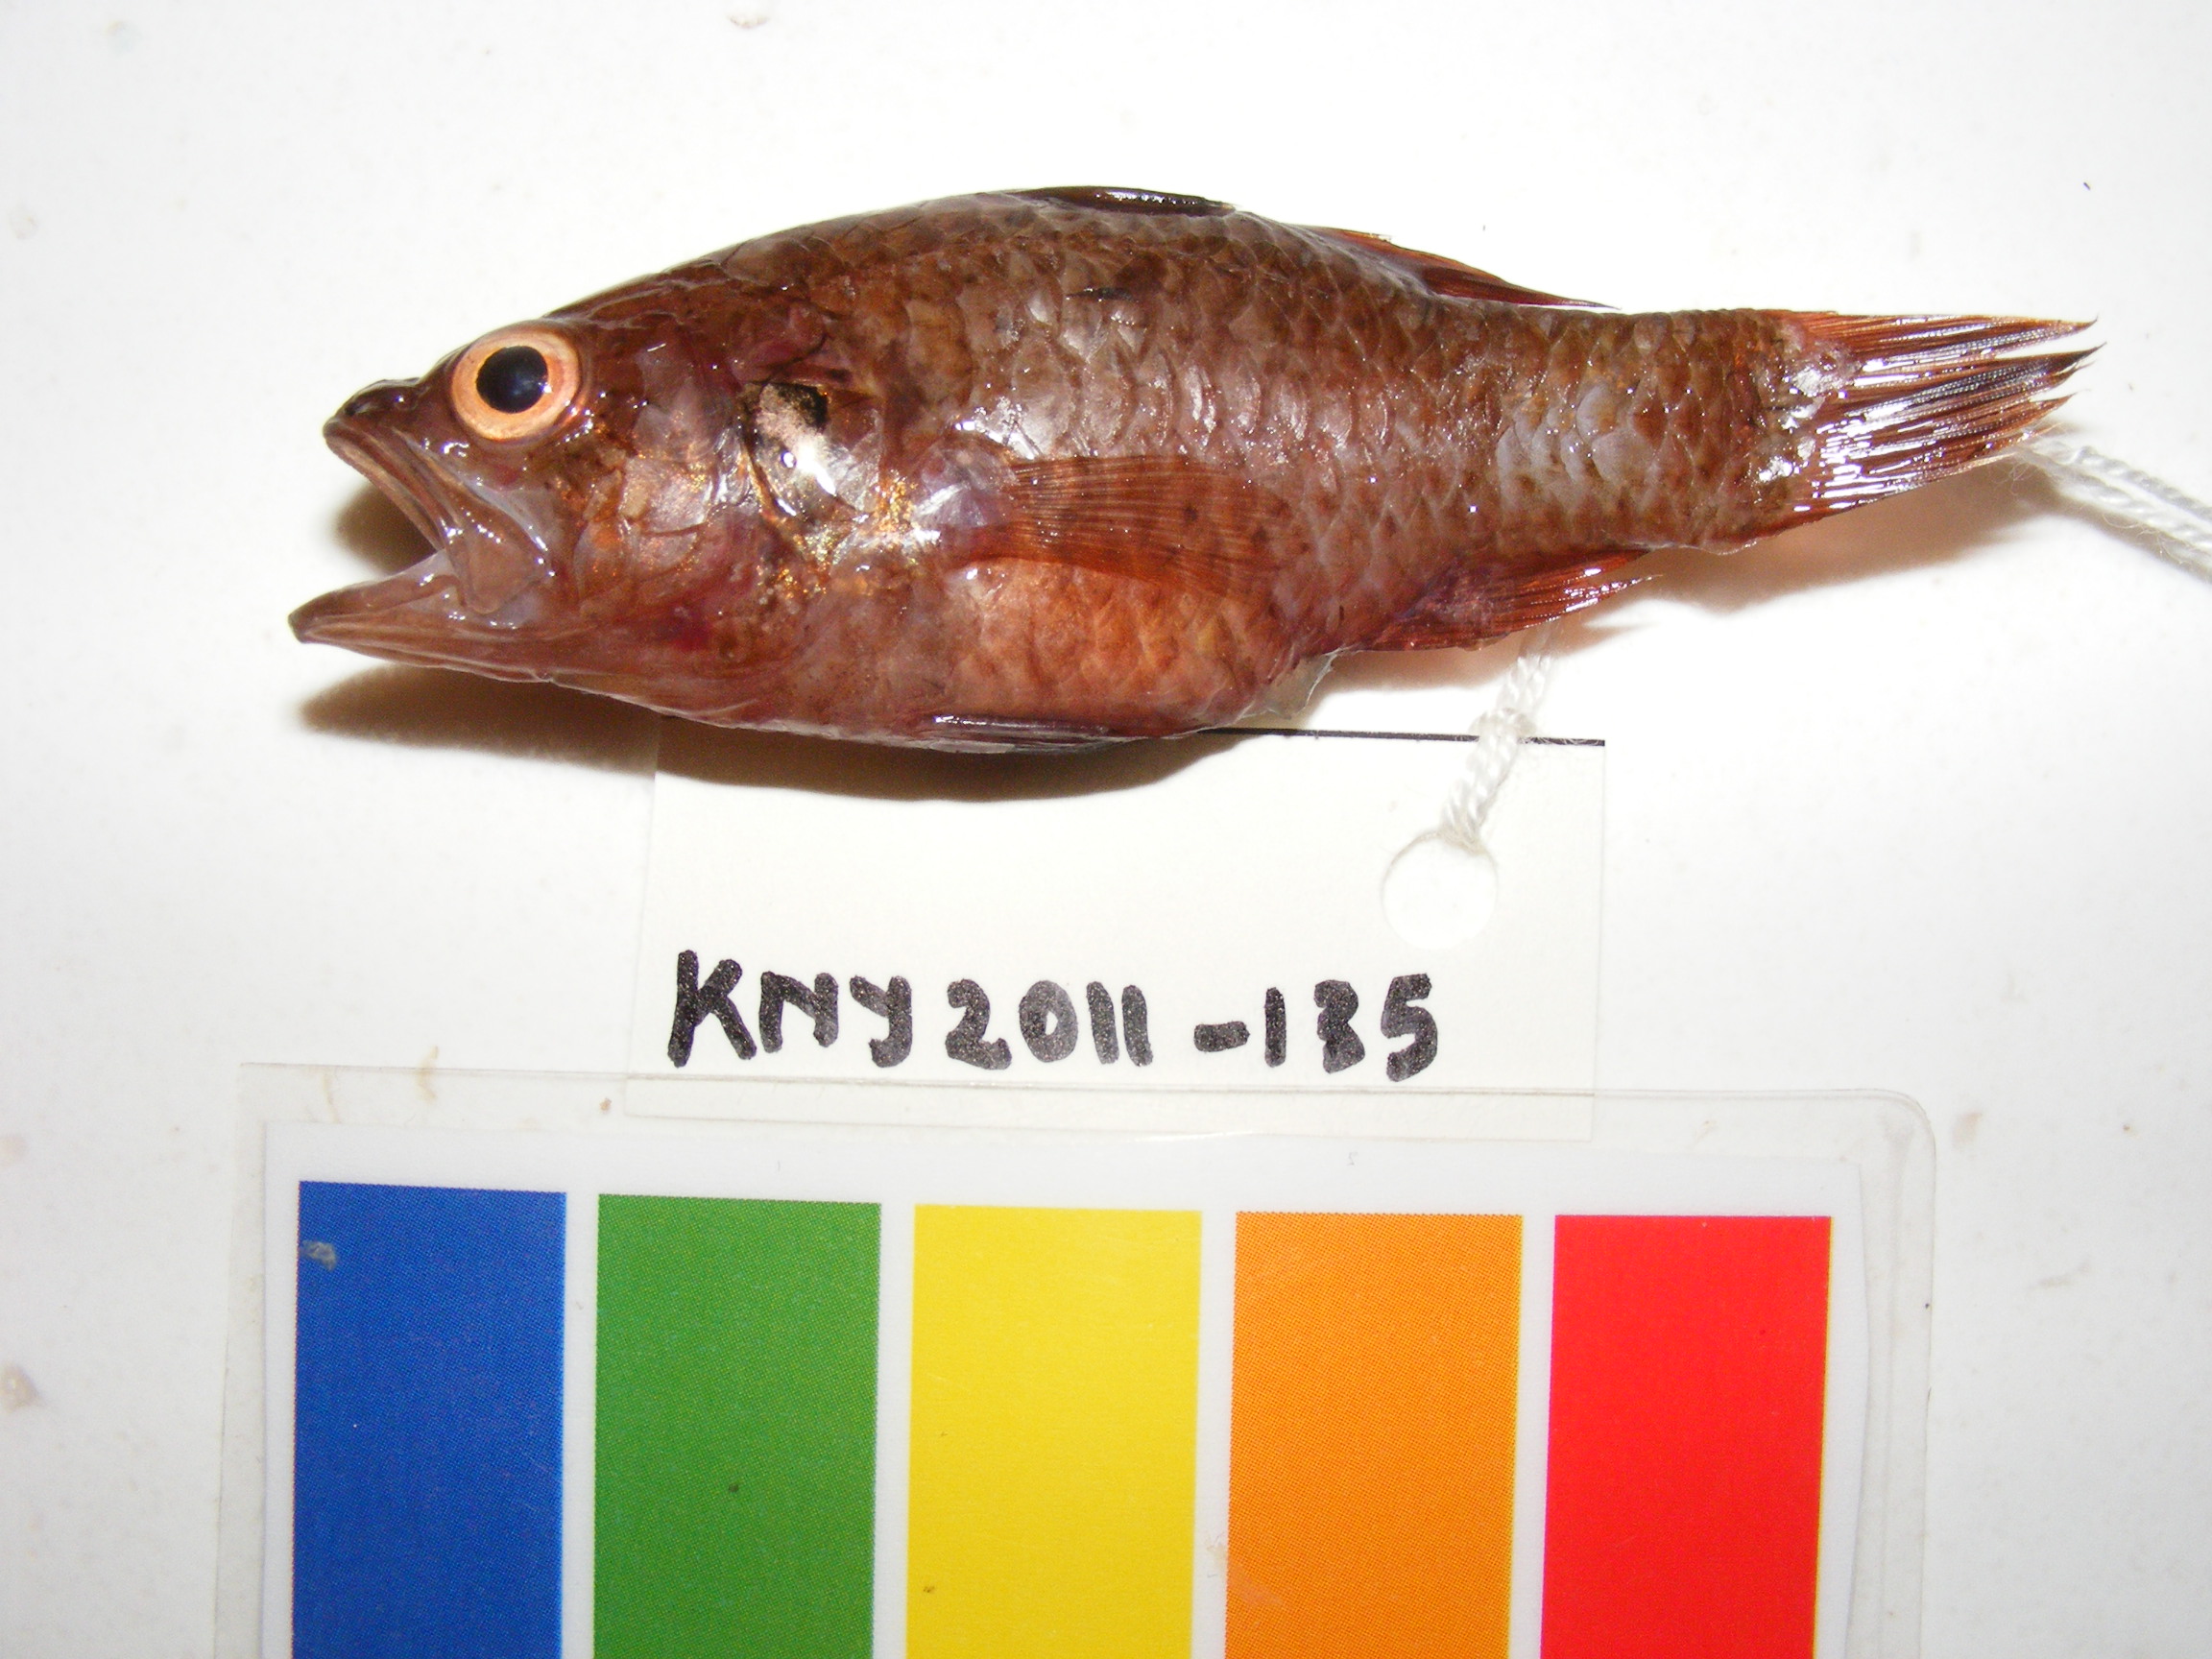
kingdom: Animalia
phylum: Chordata
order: Perciformes
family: Apogonidae
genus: Fowleria
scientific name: Fowleria aurita
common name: Crosseyed cardinalfish
